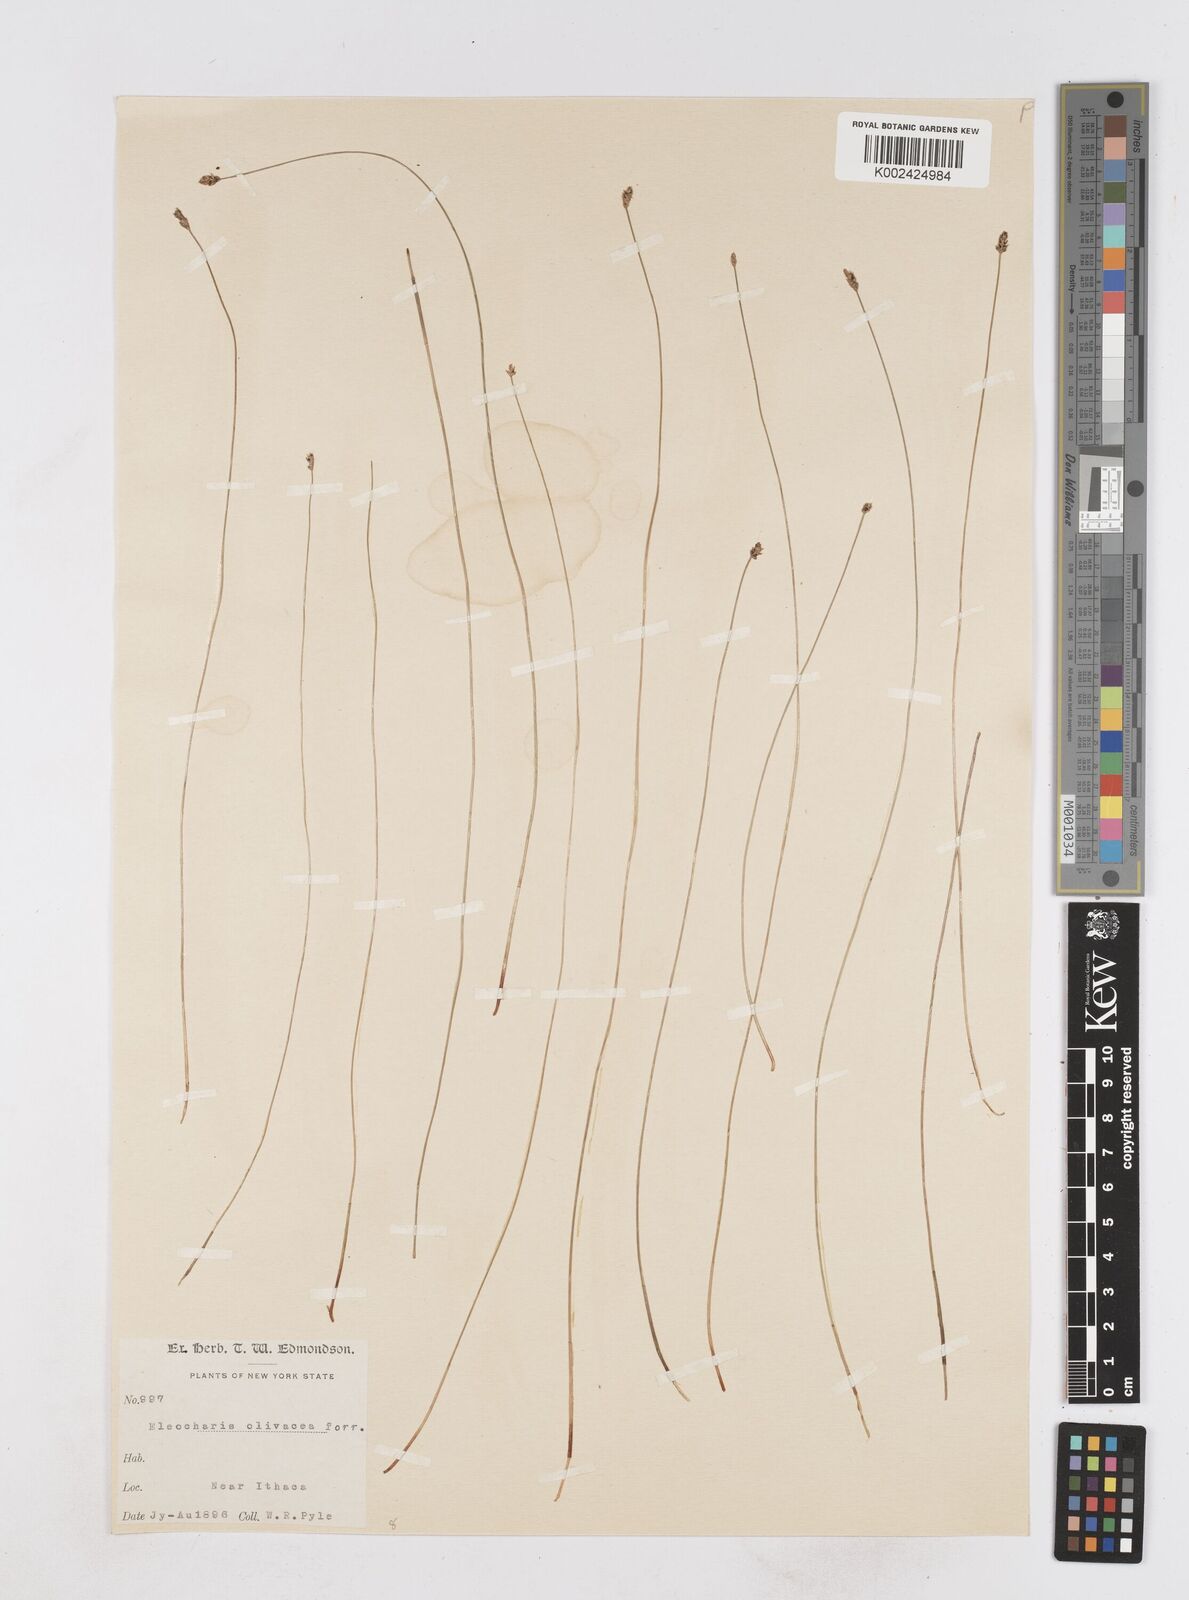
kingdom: Plantae
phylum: Tracheophyta
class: Liliopsida
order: Poales
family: Cyperaceae
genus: Eleocharis
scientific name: Eleocharis flavescens
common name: Yellow spikerush
